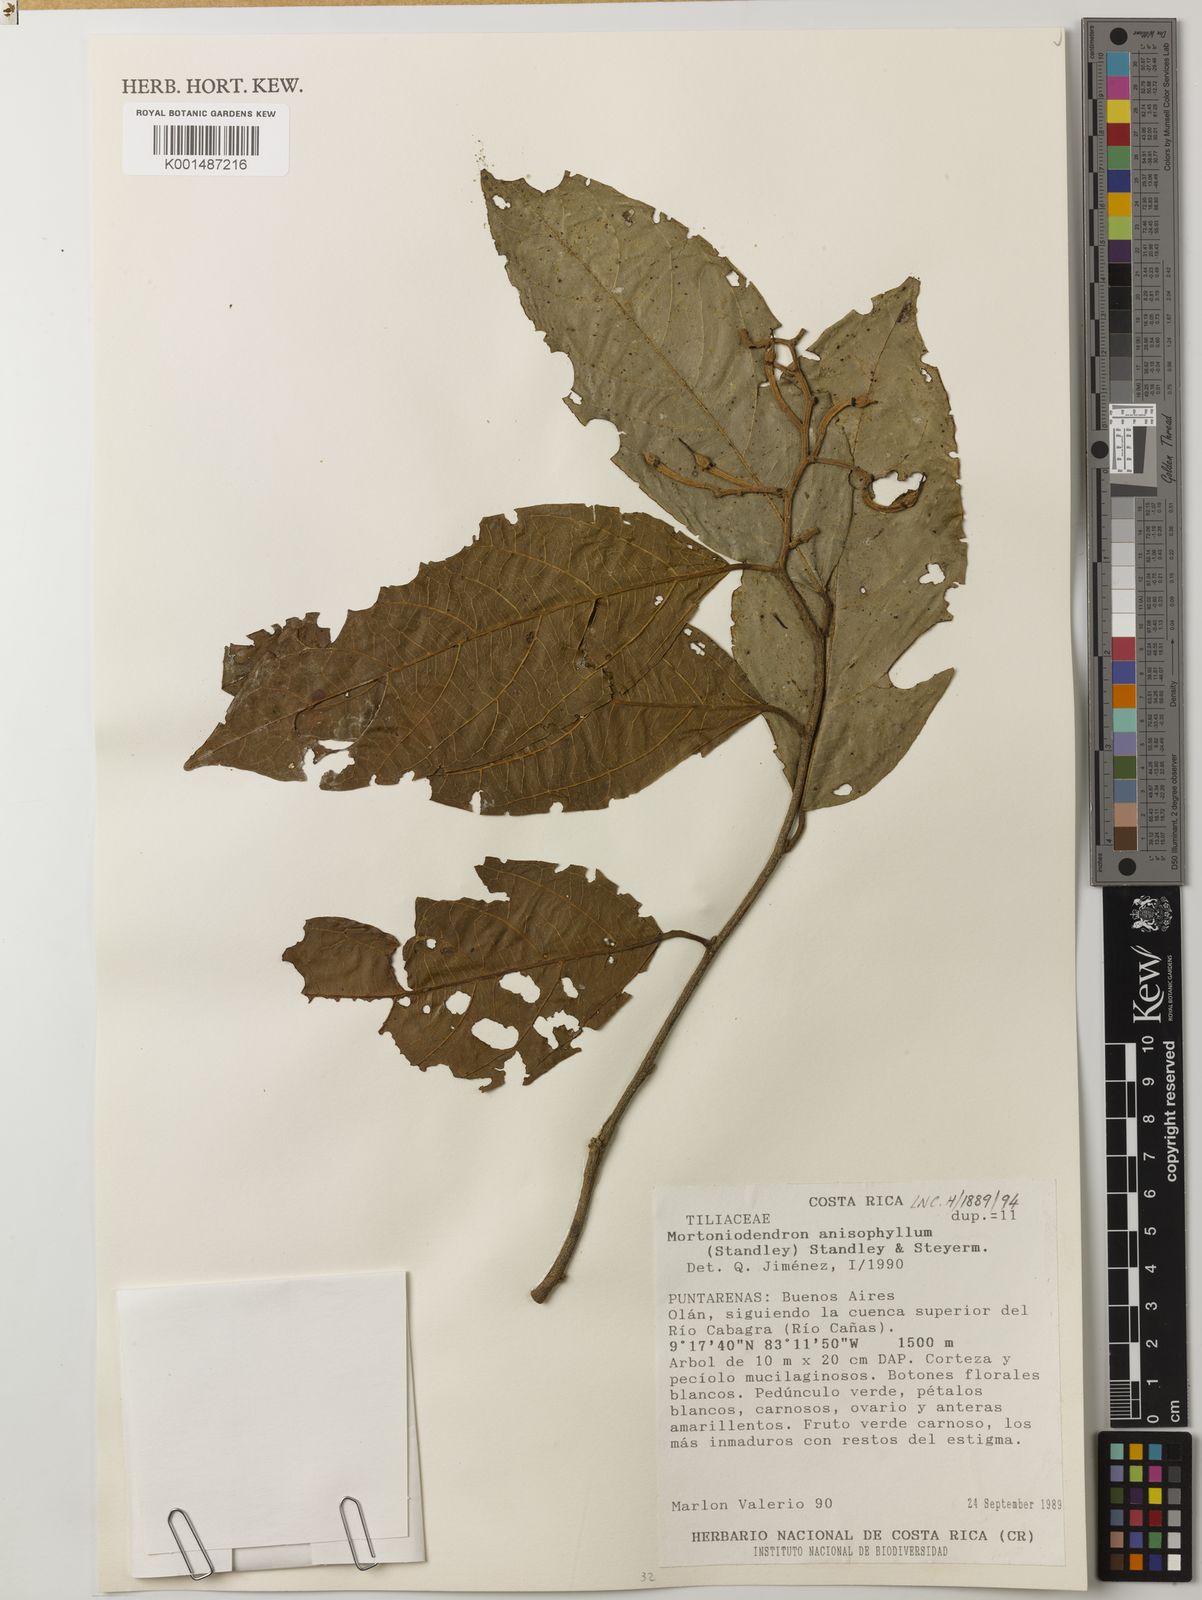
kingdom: Plantae
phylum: Tracheophyta
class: Magnoliopsida
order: Malvales
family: Malvaceae
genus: Mortoniodendron
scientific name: Mortoniodendron anisophyllum
